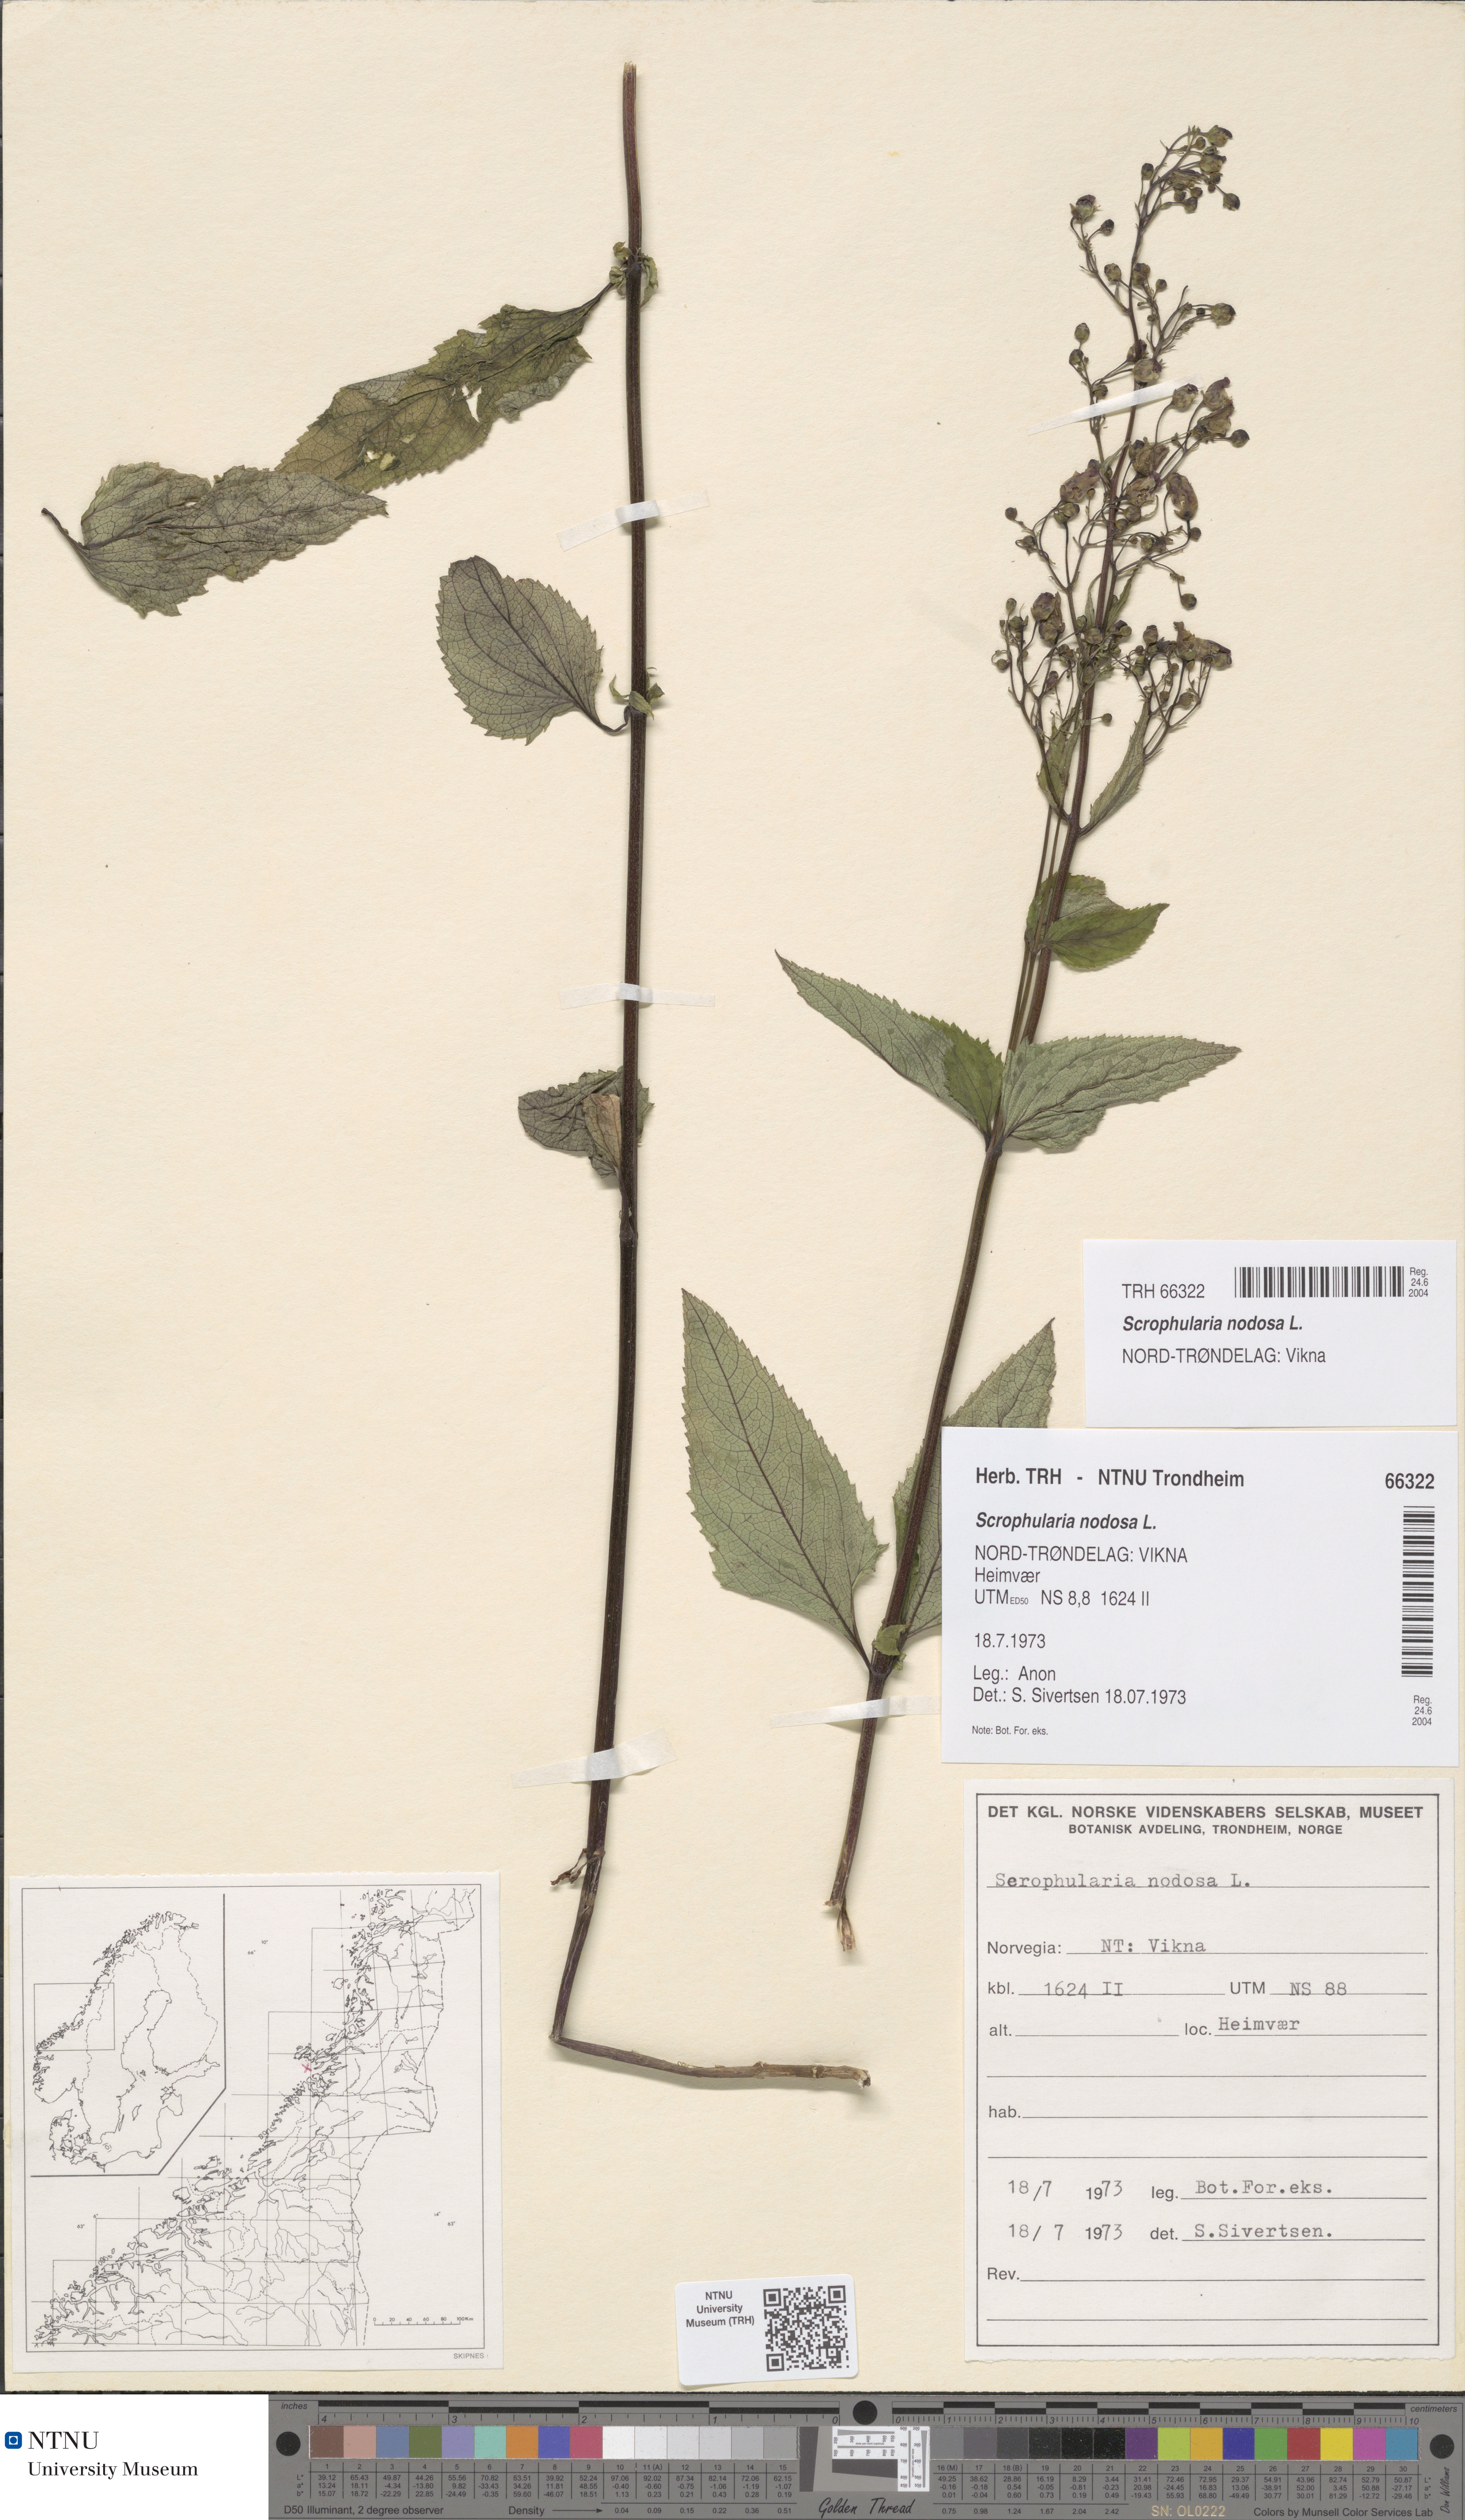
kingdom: Plantae
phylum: Tracheophyta
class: Magnoliopsida
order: Lamiales
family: Scrophulariaceae
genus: Scrophularia
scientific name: Scrophularia nodosa
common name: Common figwort
